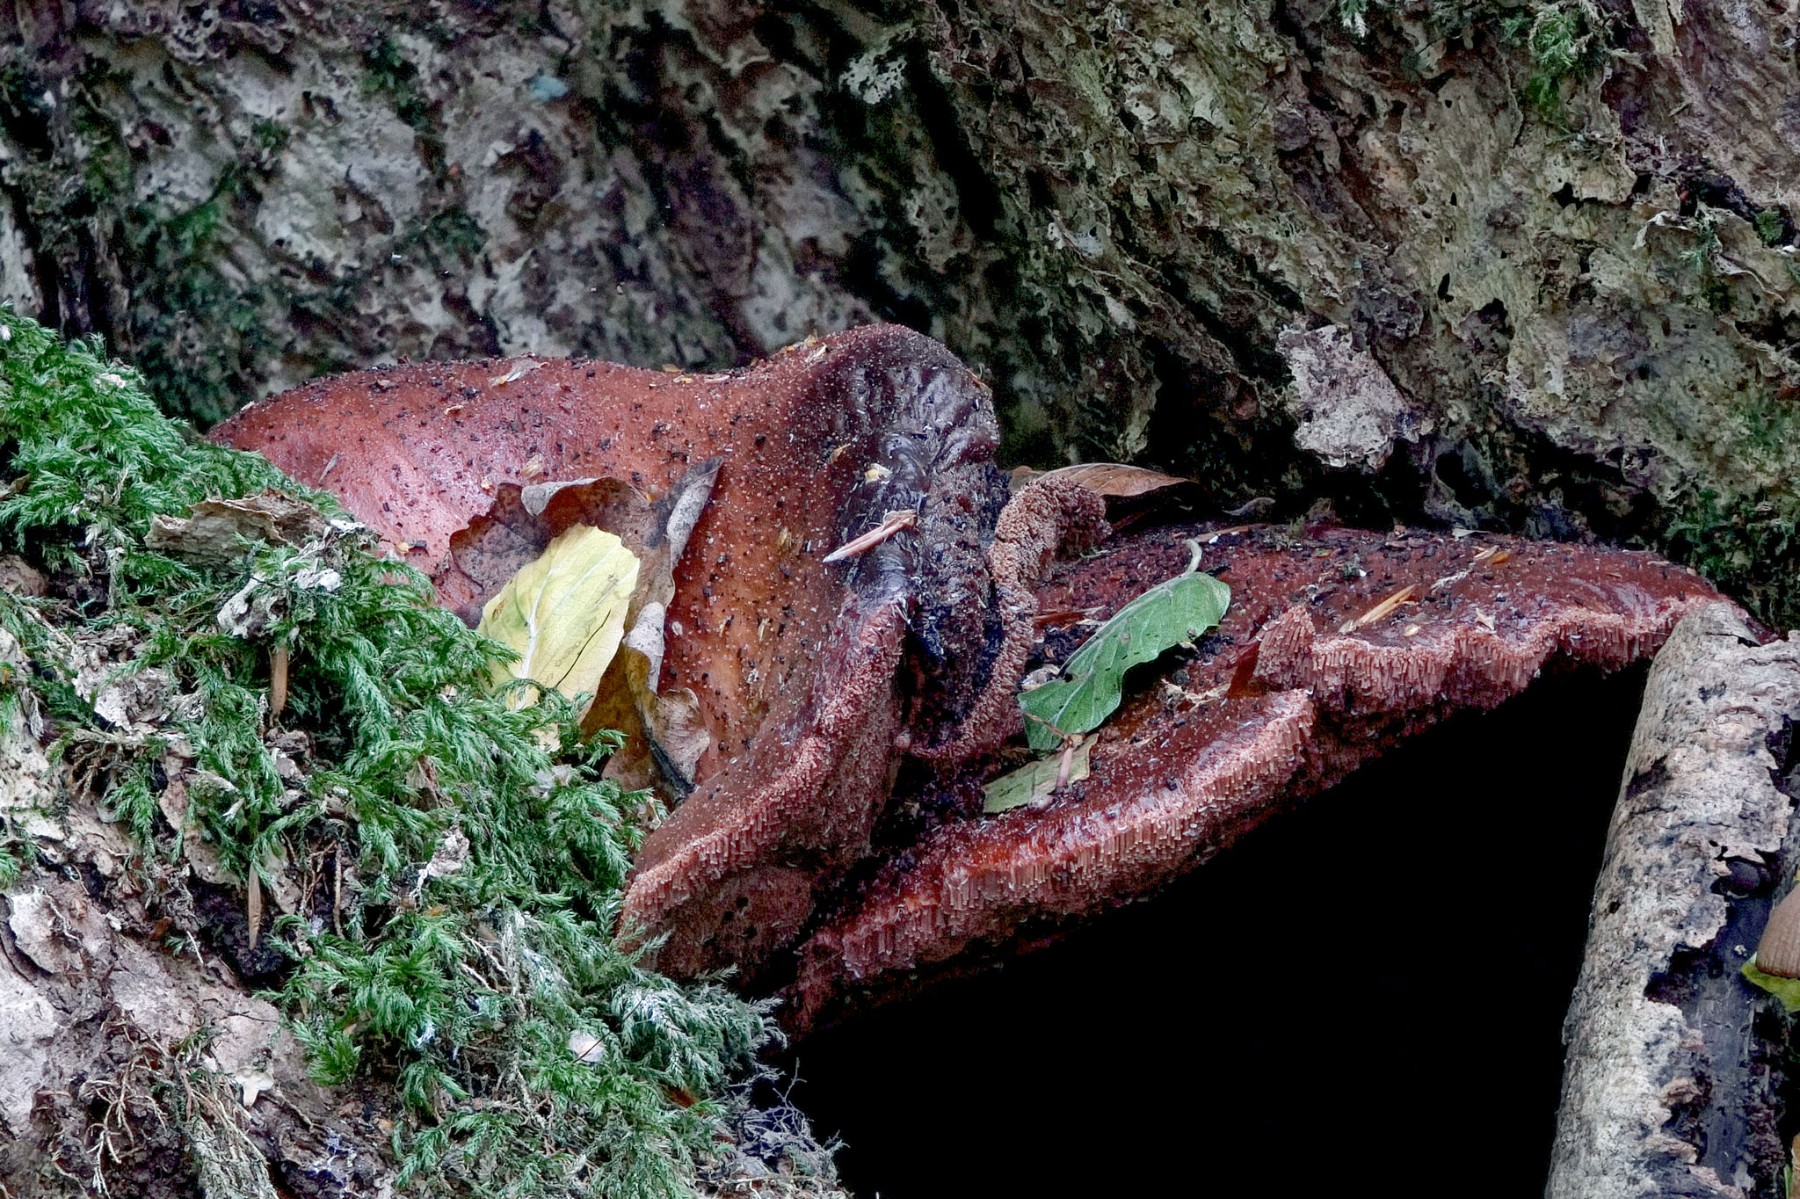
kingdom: Fungi
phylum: Basidiomycota
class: Agaricomycetes
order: Agaricales
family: Fistulinaceae
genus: Fistulina
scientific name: Fistulina hepatica
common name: oksetunge
